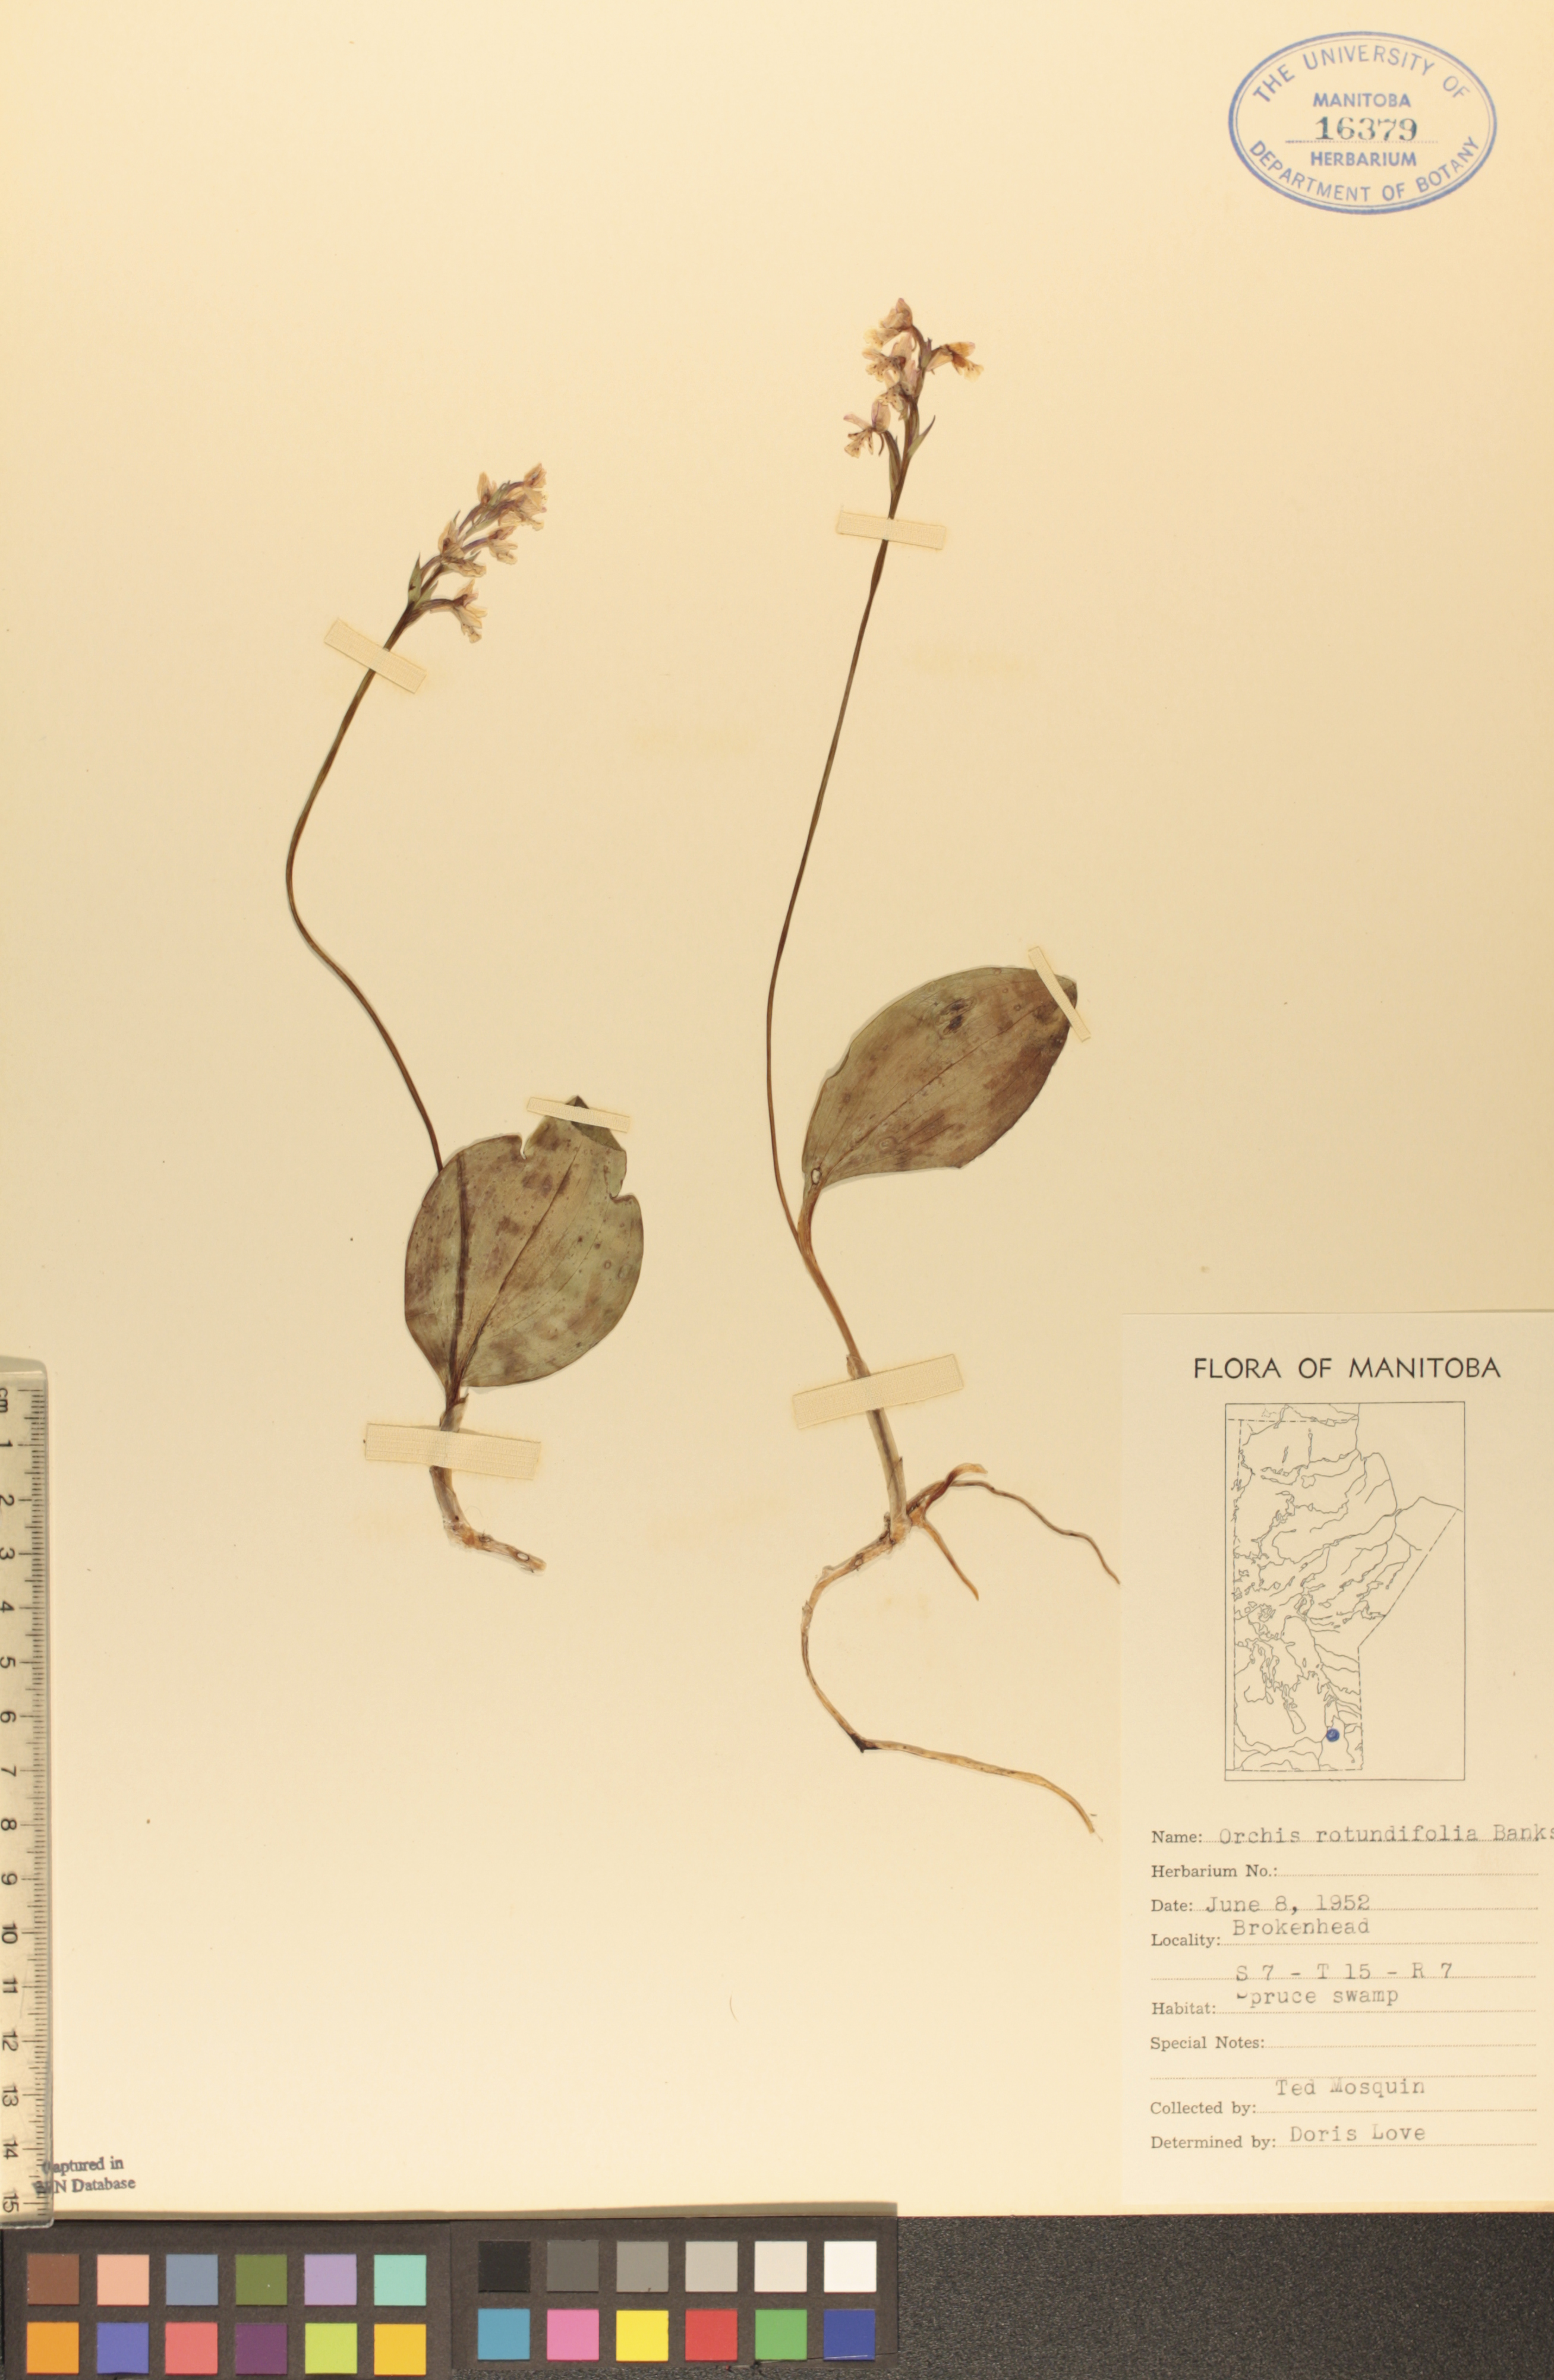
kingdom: Plantae
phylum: Tracheophyta
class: Liliopsida
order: Asparagales
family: Orchidaceae
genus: Galearis
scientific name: Galearis rotundifolia
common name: One-leaved orchis
